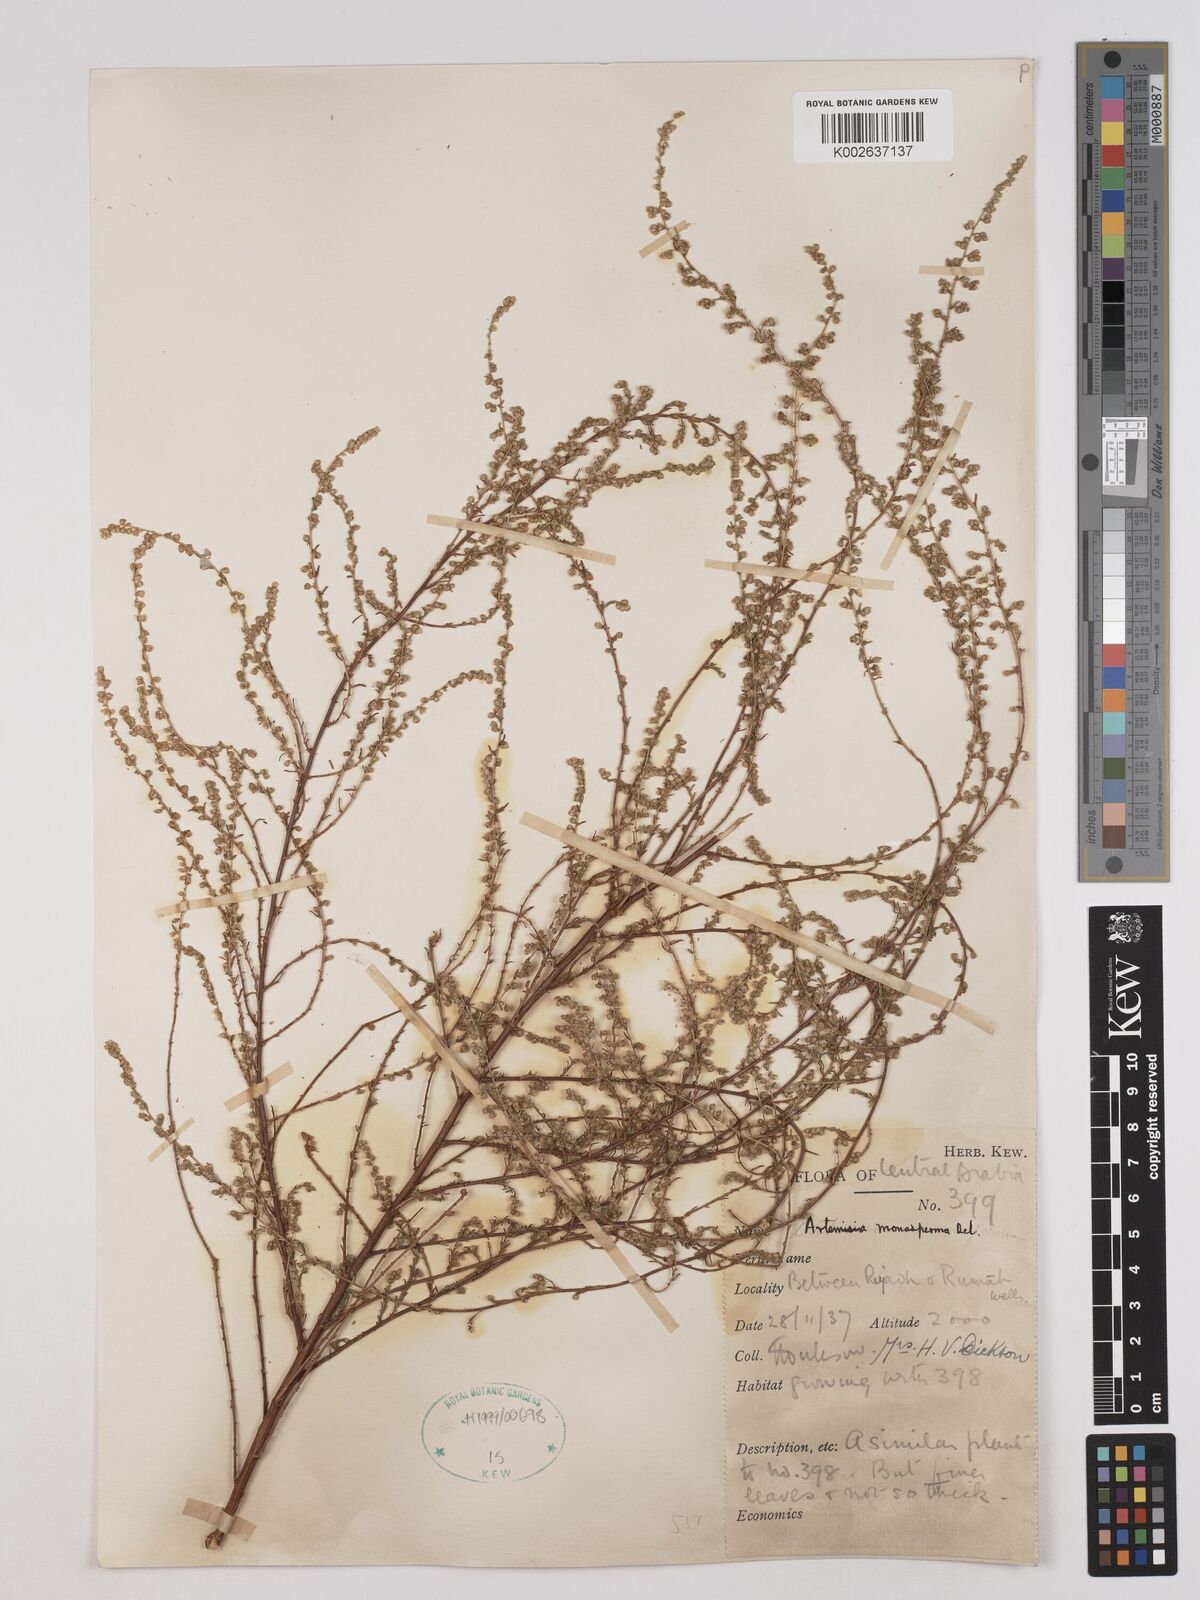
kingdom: Plantae
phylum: Tracheophyta
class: Magnoliopsida
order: Asterales
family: Asteraceae
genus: Artemisia
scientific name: Artemisia monosperma
